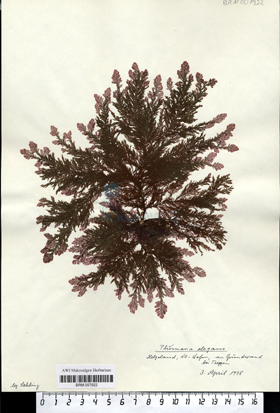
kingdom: Plantae
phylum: Rhodophyta
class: Florideophyceae
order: Ceramiales
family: Wrangeliaceae
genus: Plumaria
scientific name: Plumaria plumosa
